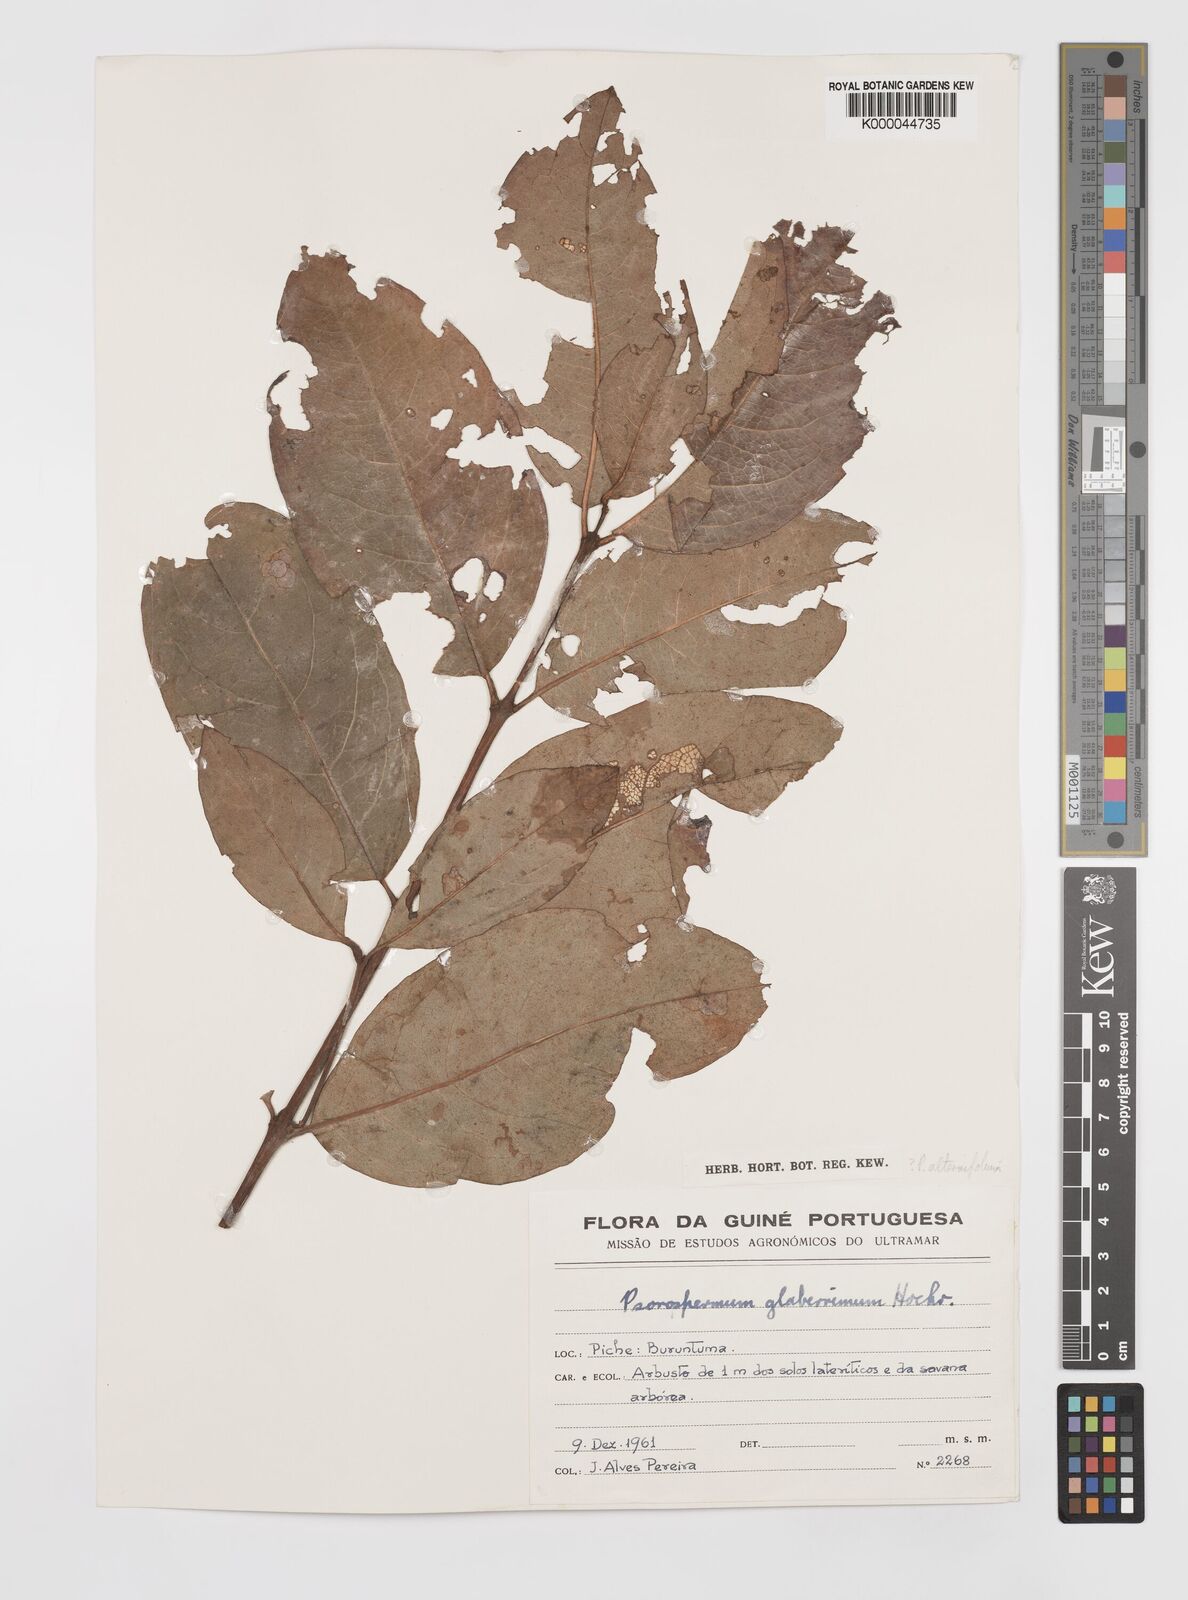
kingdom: Plantae
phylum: Tracheophyta
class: Magnoliopsida
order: Malpighiales
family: Hypericaceae
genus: Psorospermum
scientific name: Psorospermum alternifolium
